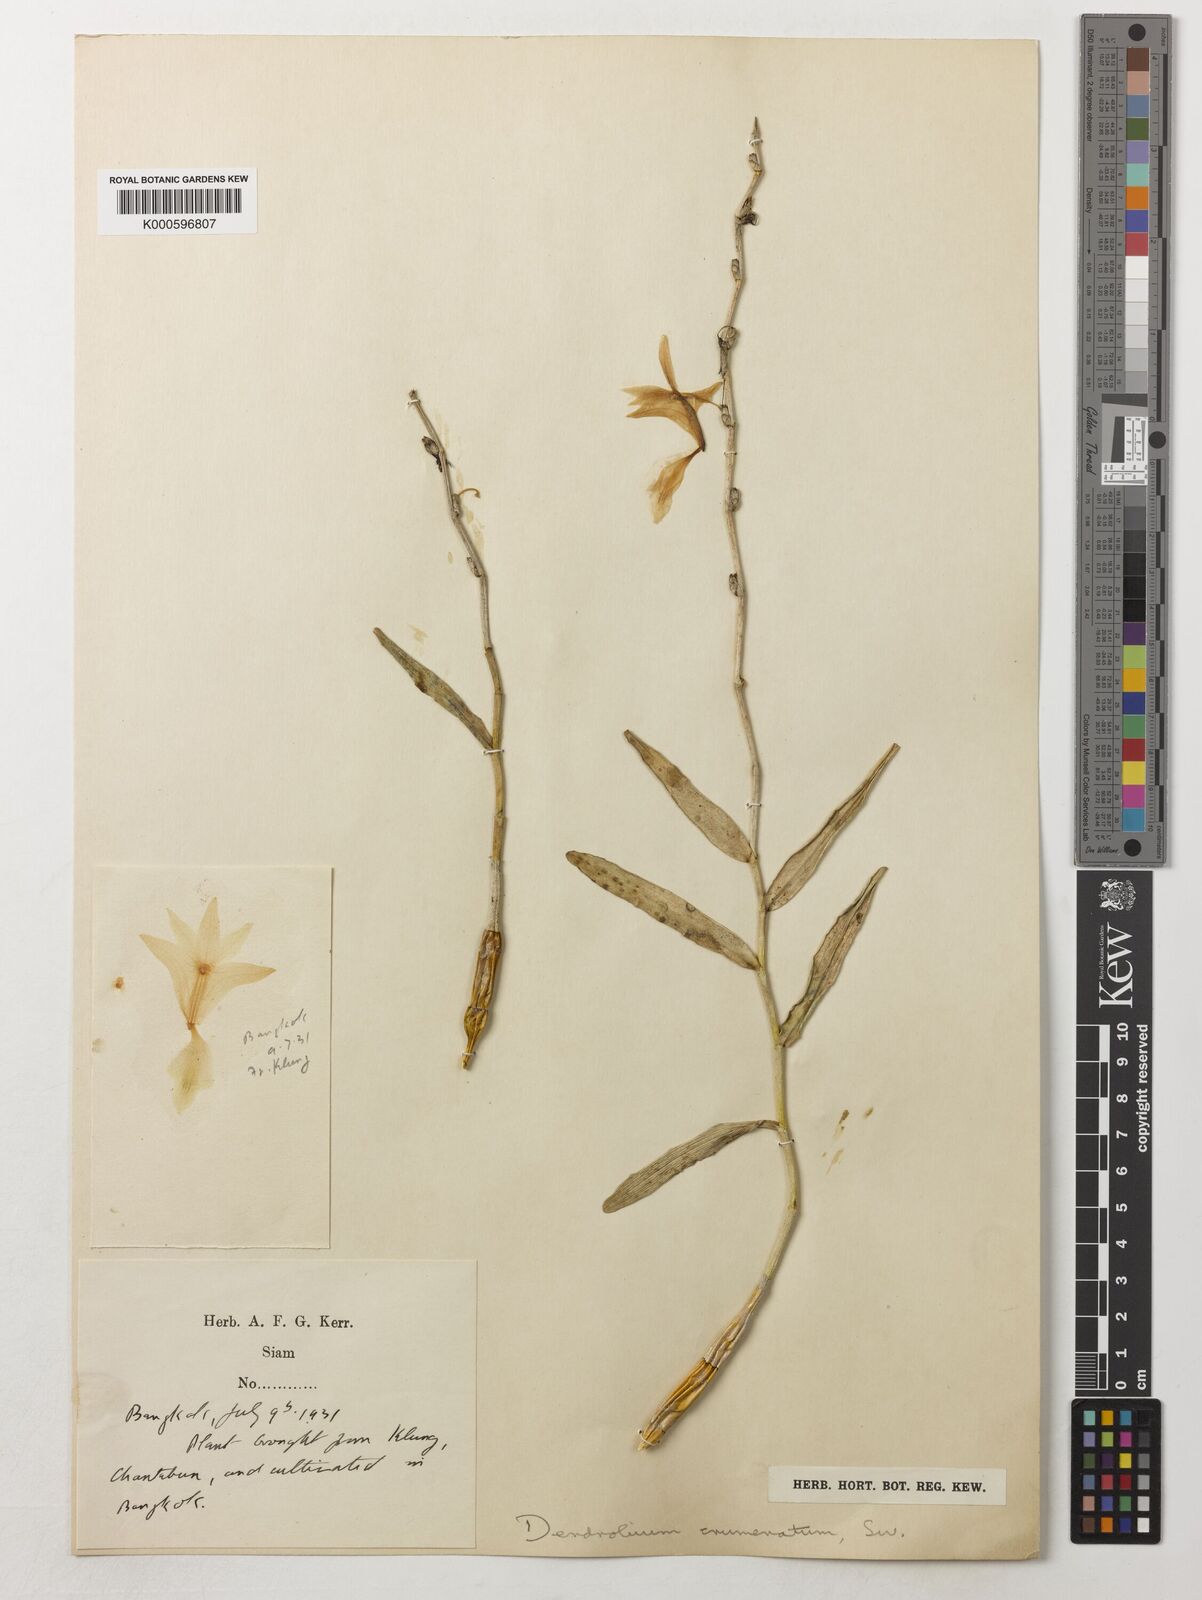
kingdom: Plantae
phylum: Tracheophyta
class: Liliopsida
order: Asparagales
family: Orchidaceae
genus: Dendrobium
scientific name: Dendrobium crumenatum
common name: Orchid
